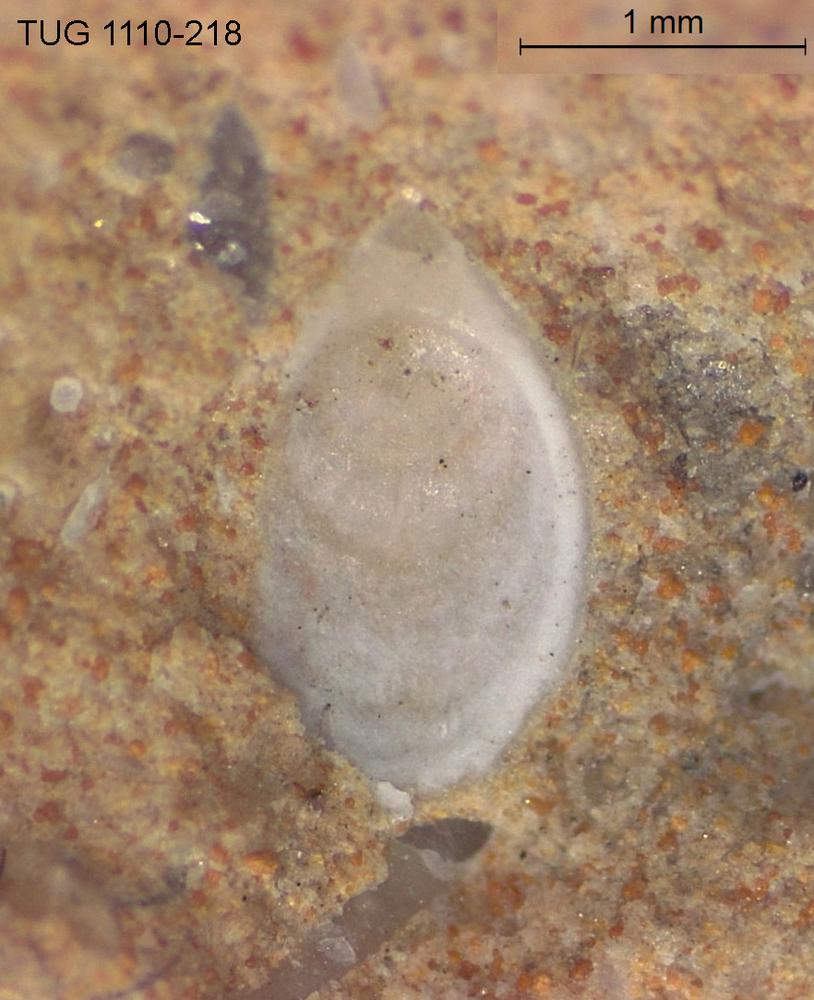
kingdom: Animalia
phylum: Brachiopoda
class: Craniata
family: Craniopsidae
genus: Craniops
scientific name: Craniops
